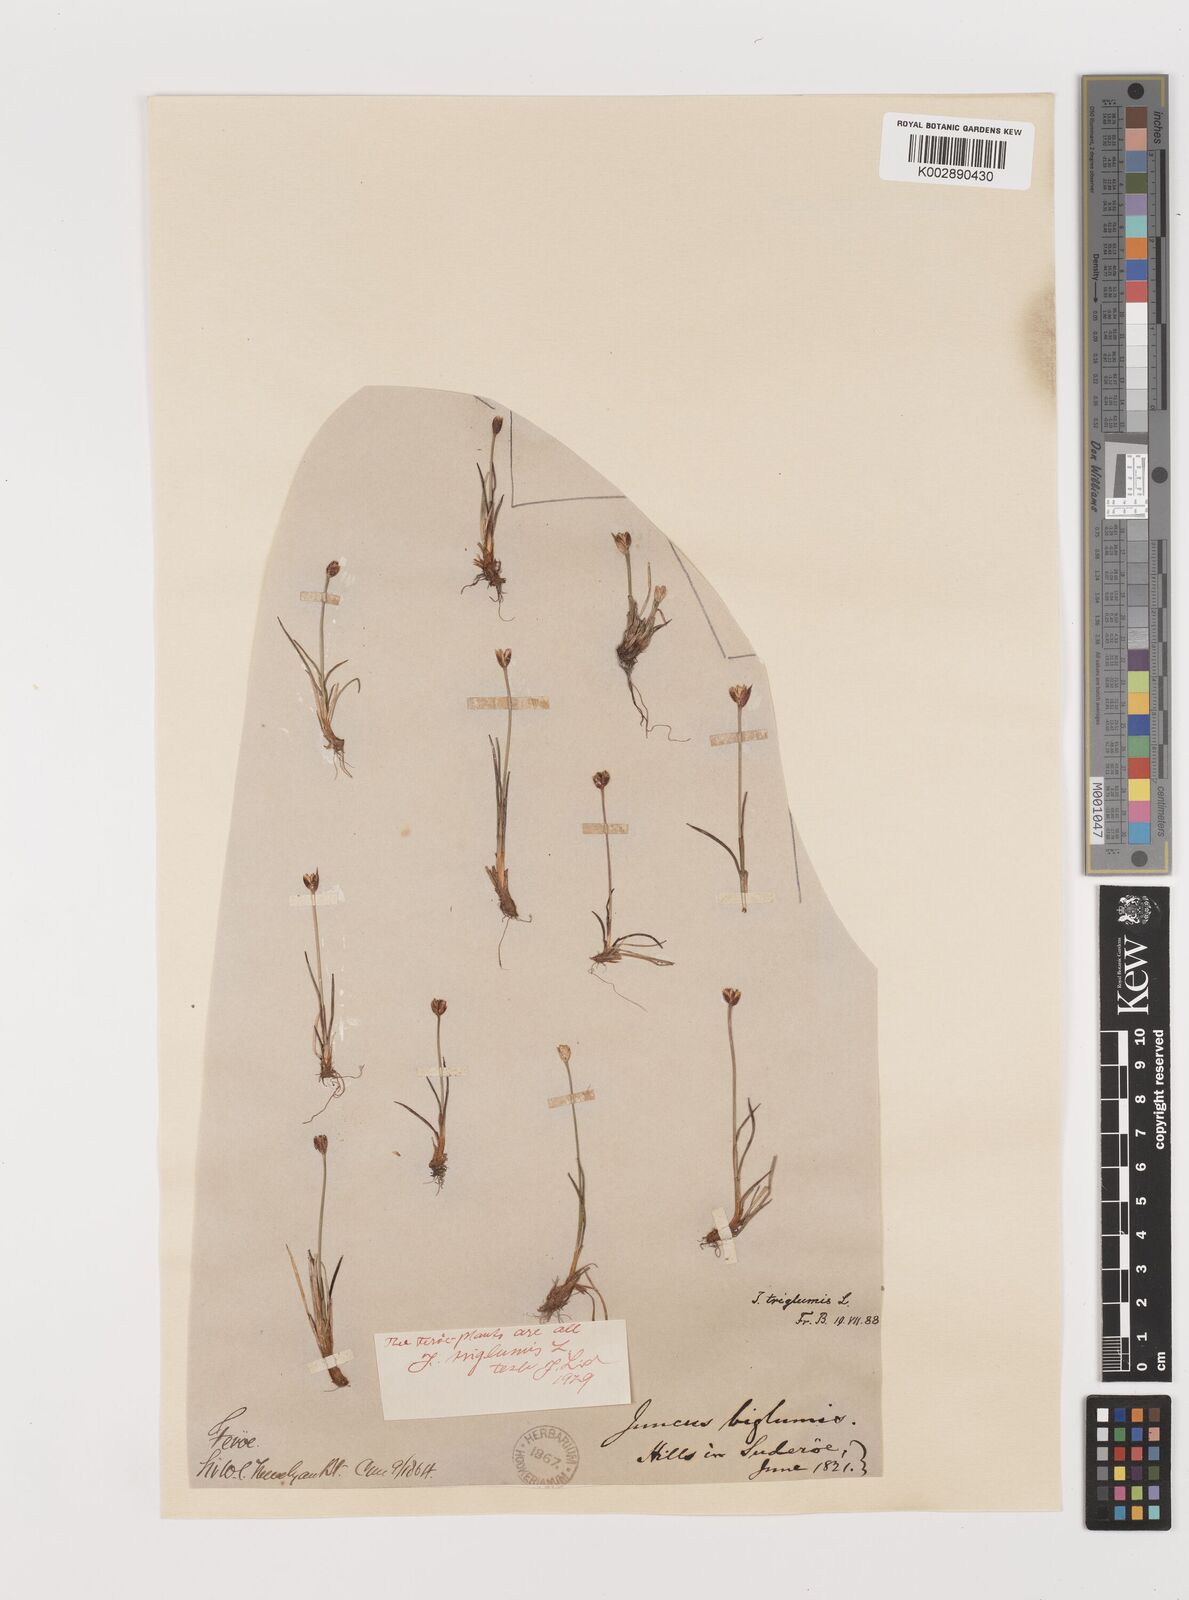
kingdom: Plantae
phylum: Tracheophyta
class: Liliopsida
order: Poales
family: Juncaceae
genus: Juncus
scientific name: Juncus triglumis
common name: Three-flowered rush
